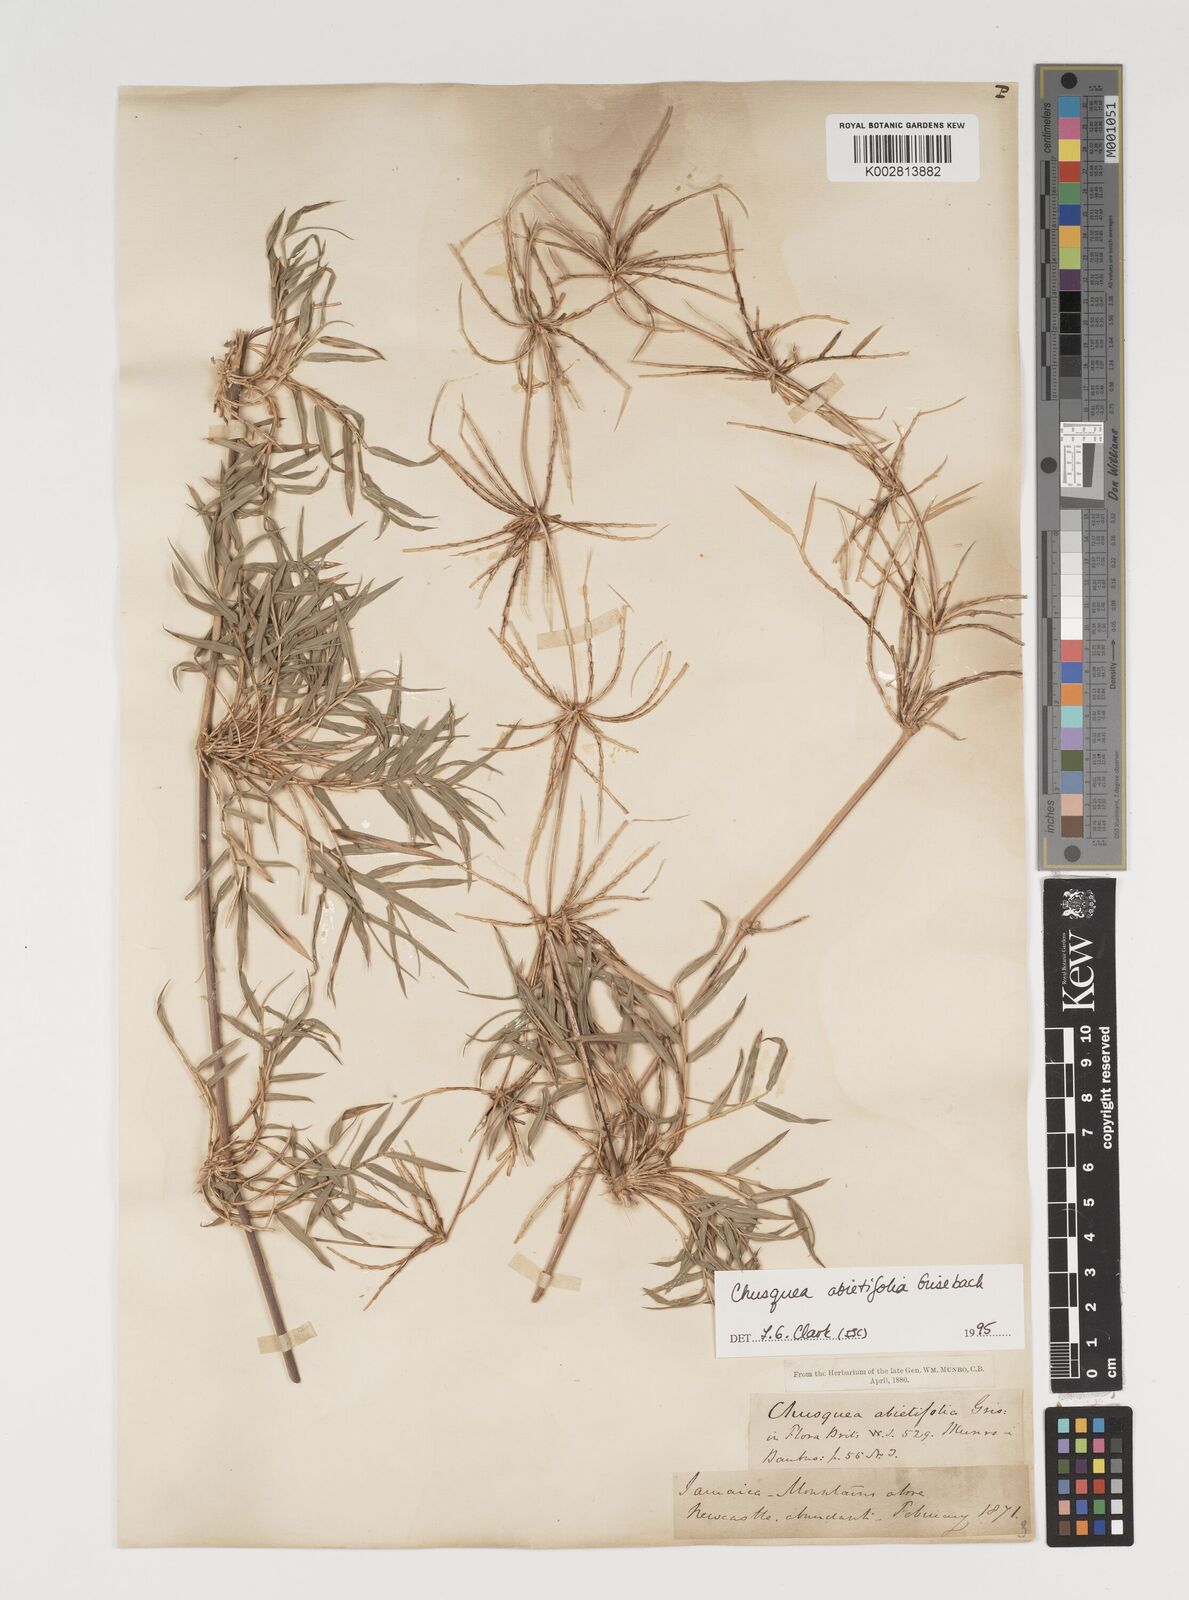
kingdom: Plantae
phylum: Tracheophyta
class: Liliopsida
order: Poales
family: Poaceae
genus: Chusquea
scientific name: Chusquea abietifolia
